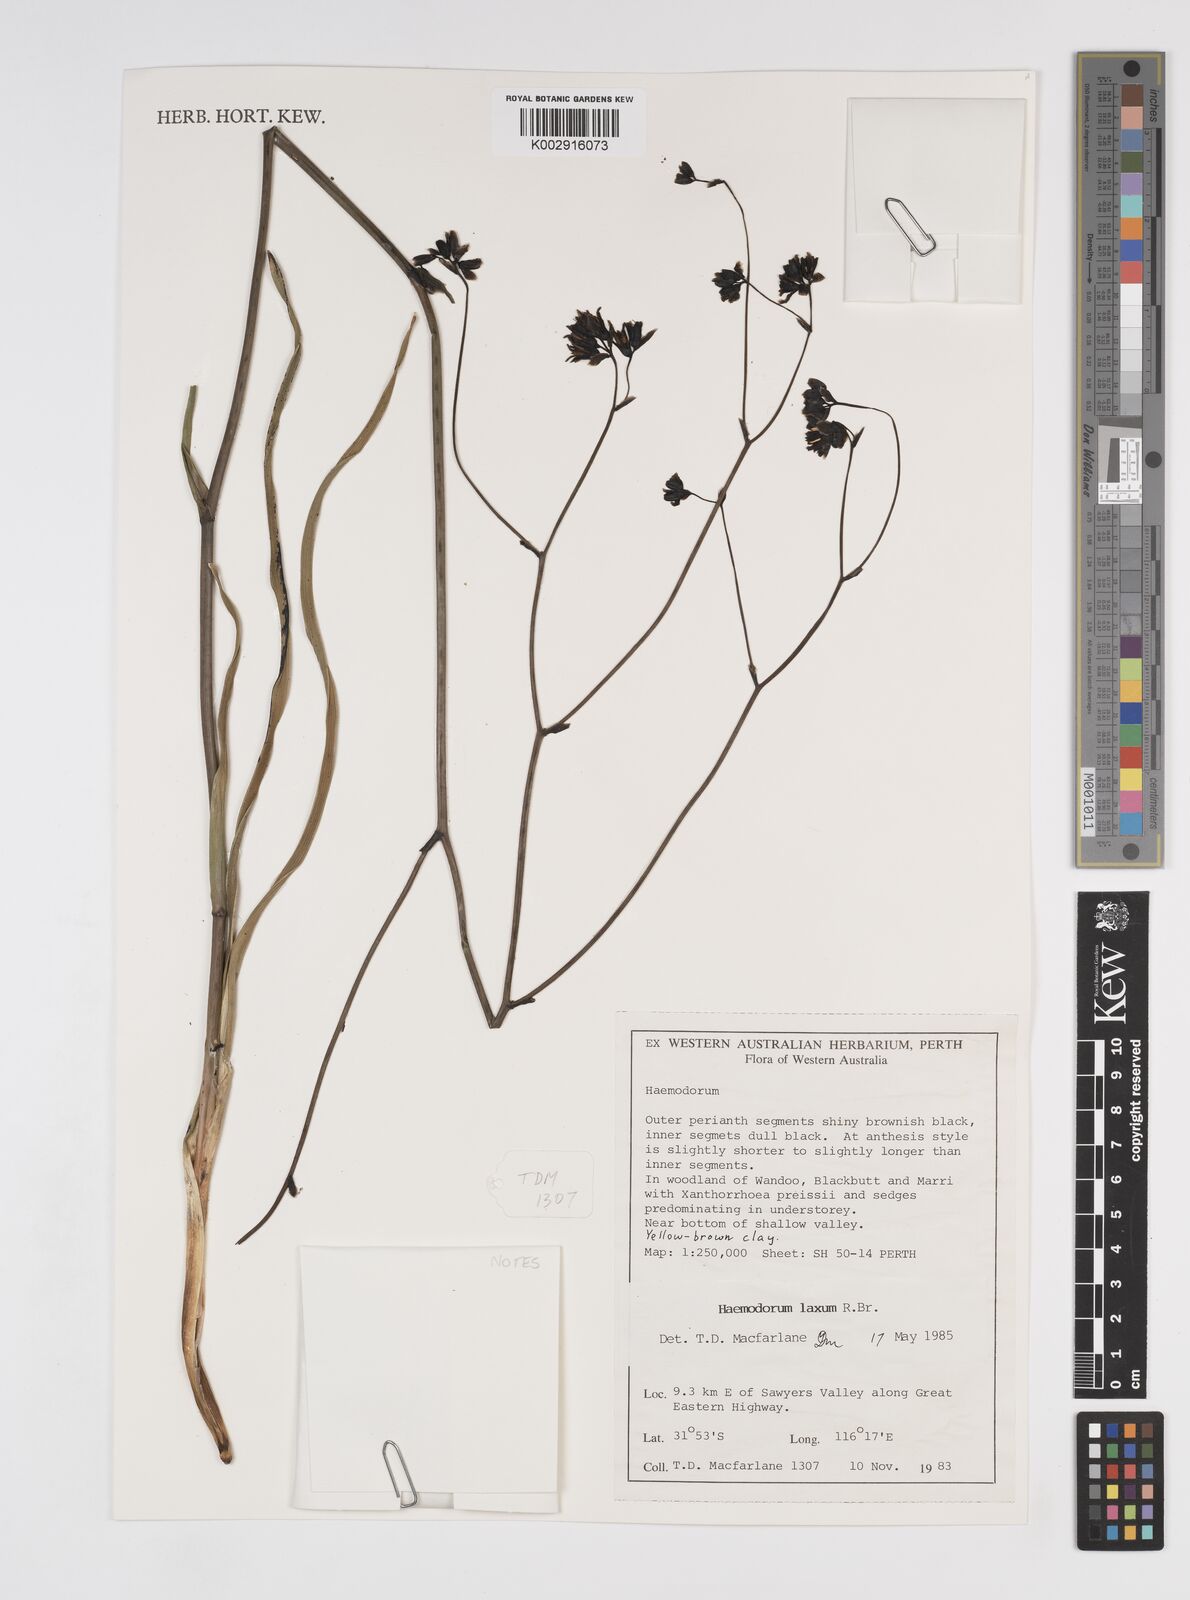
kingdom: Plantae
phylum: Tracheophyta
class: Liliopsida
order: Commelinales
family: Haemodoraceae
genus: Haemodorum
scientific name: Haemodorum laxum
